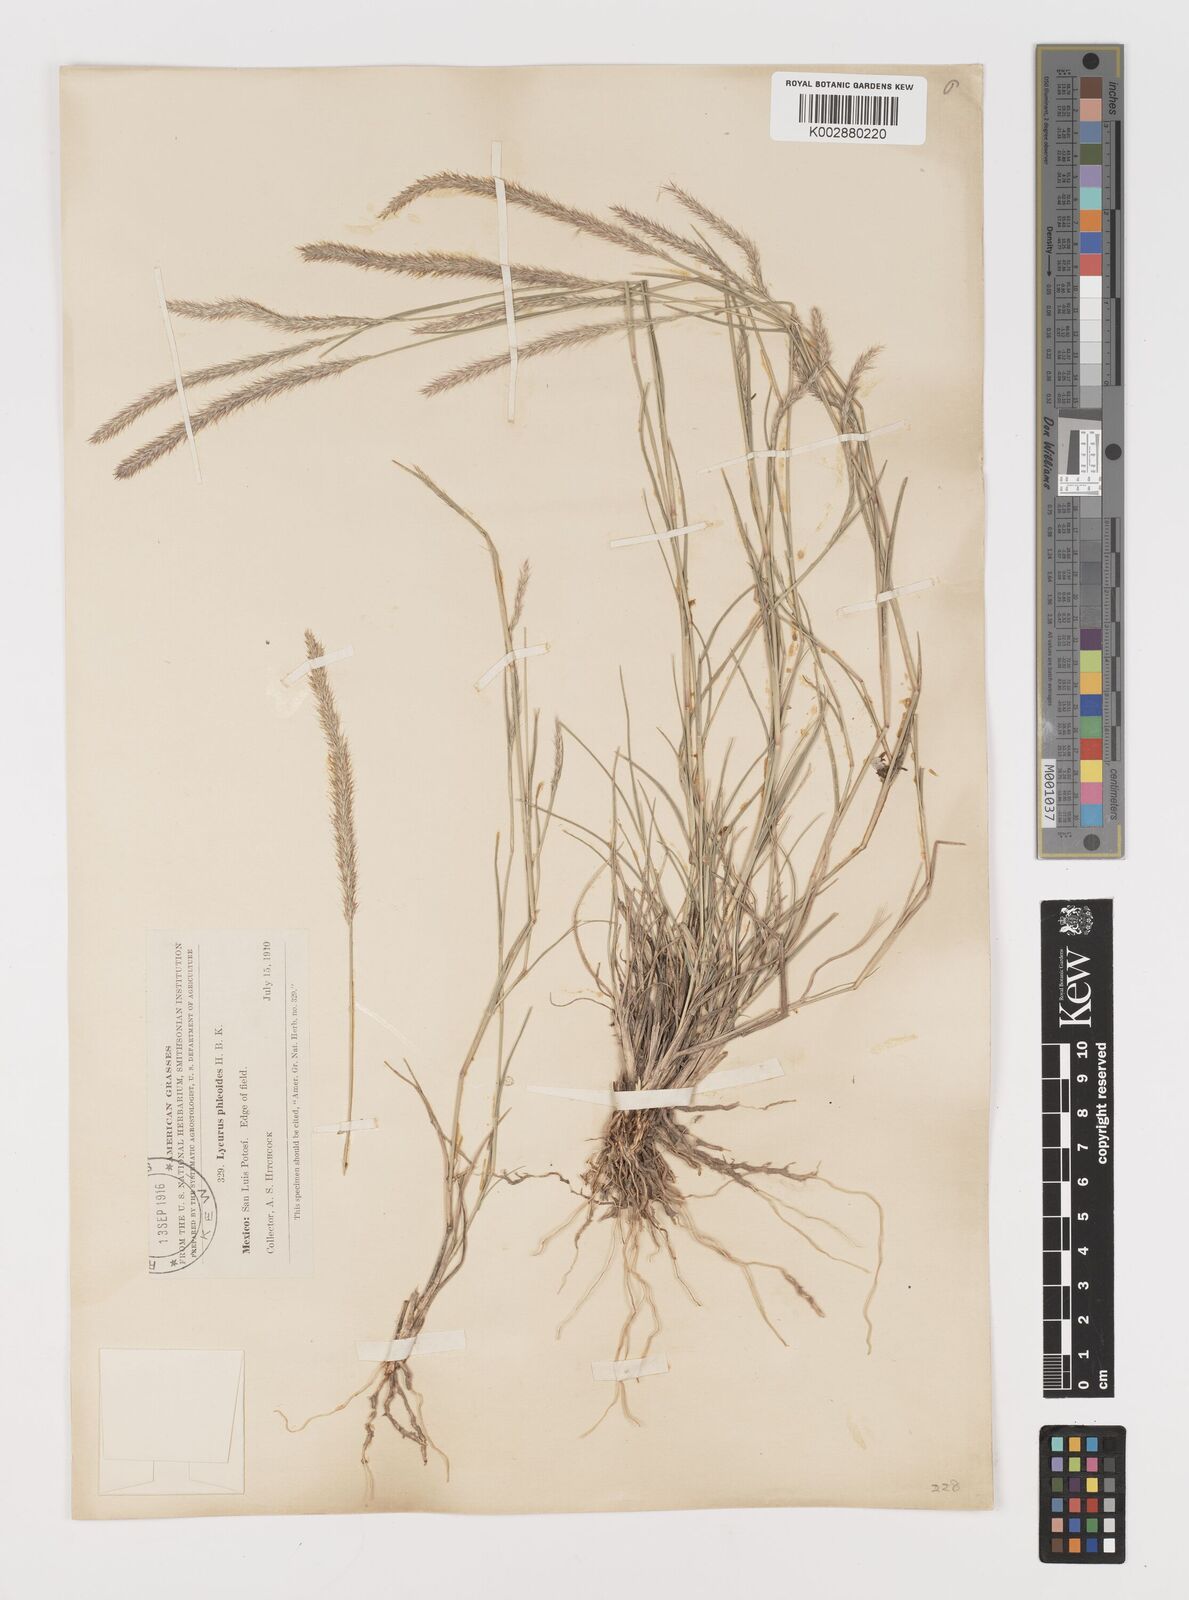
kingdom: Plantae
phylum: Tracheophyta
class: Liliopsida
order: Poales
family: Poaceae
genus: Muhlenbergia
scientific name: Muhlenbergia phleoides
